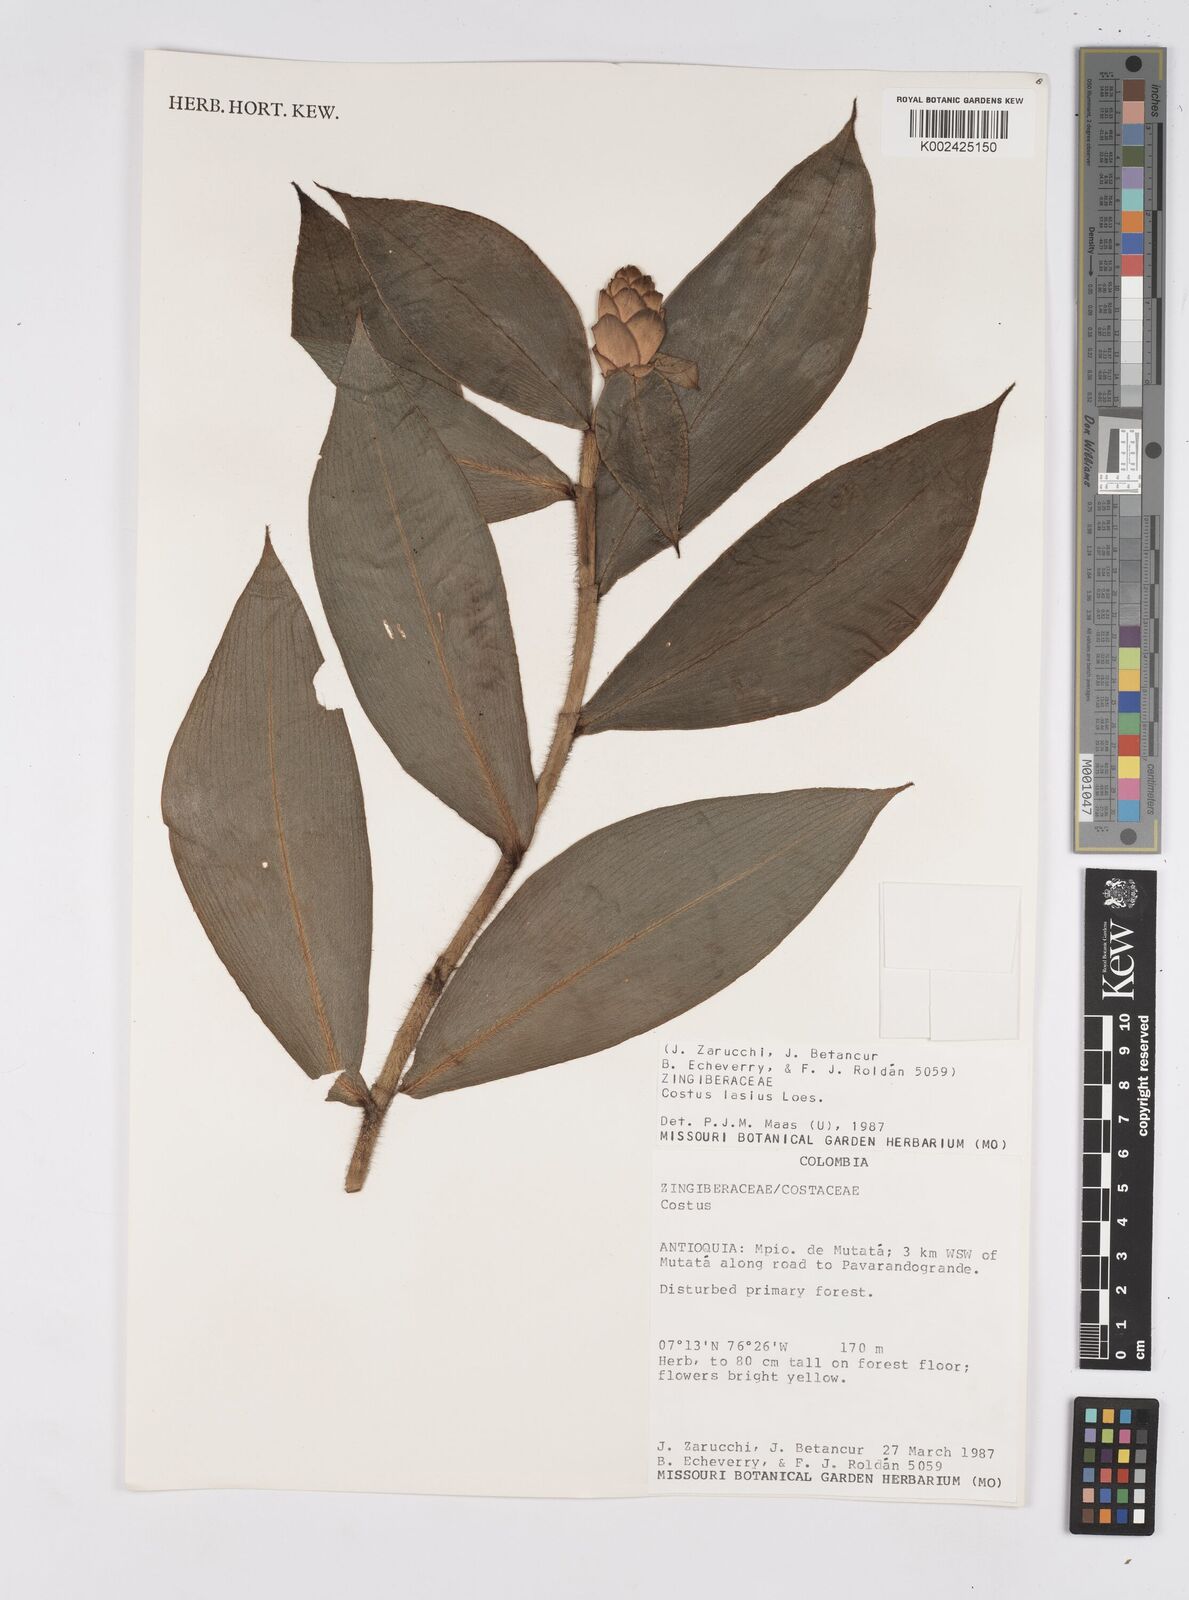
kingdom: Plantae
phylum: Tracheophyta
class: Liliopsida
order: Zingiberales
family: Costaceae
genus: Costus
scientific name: Costus lasius
